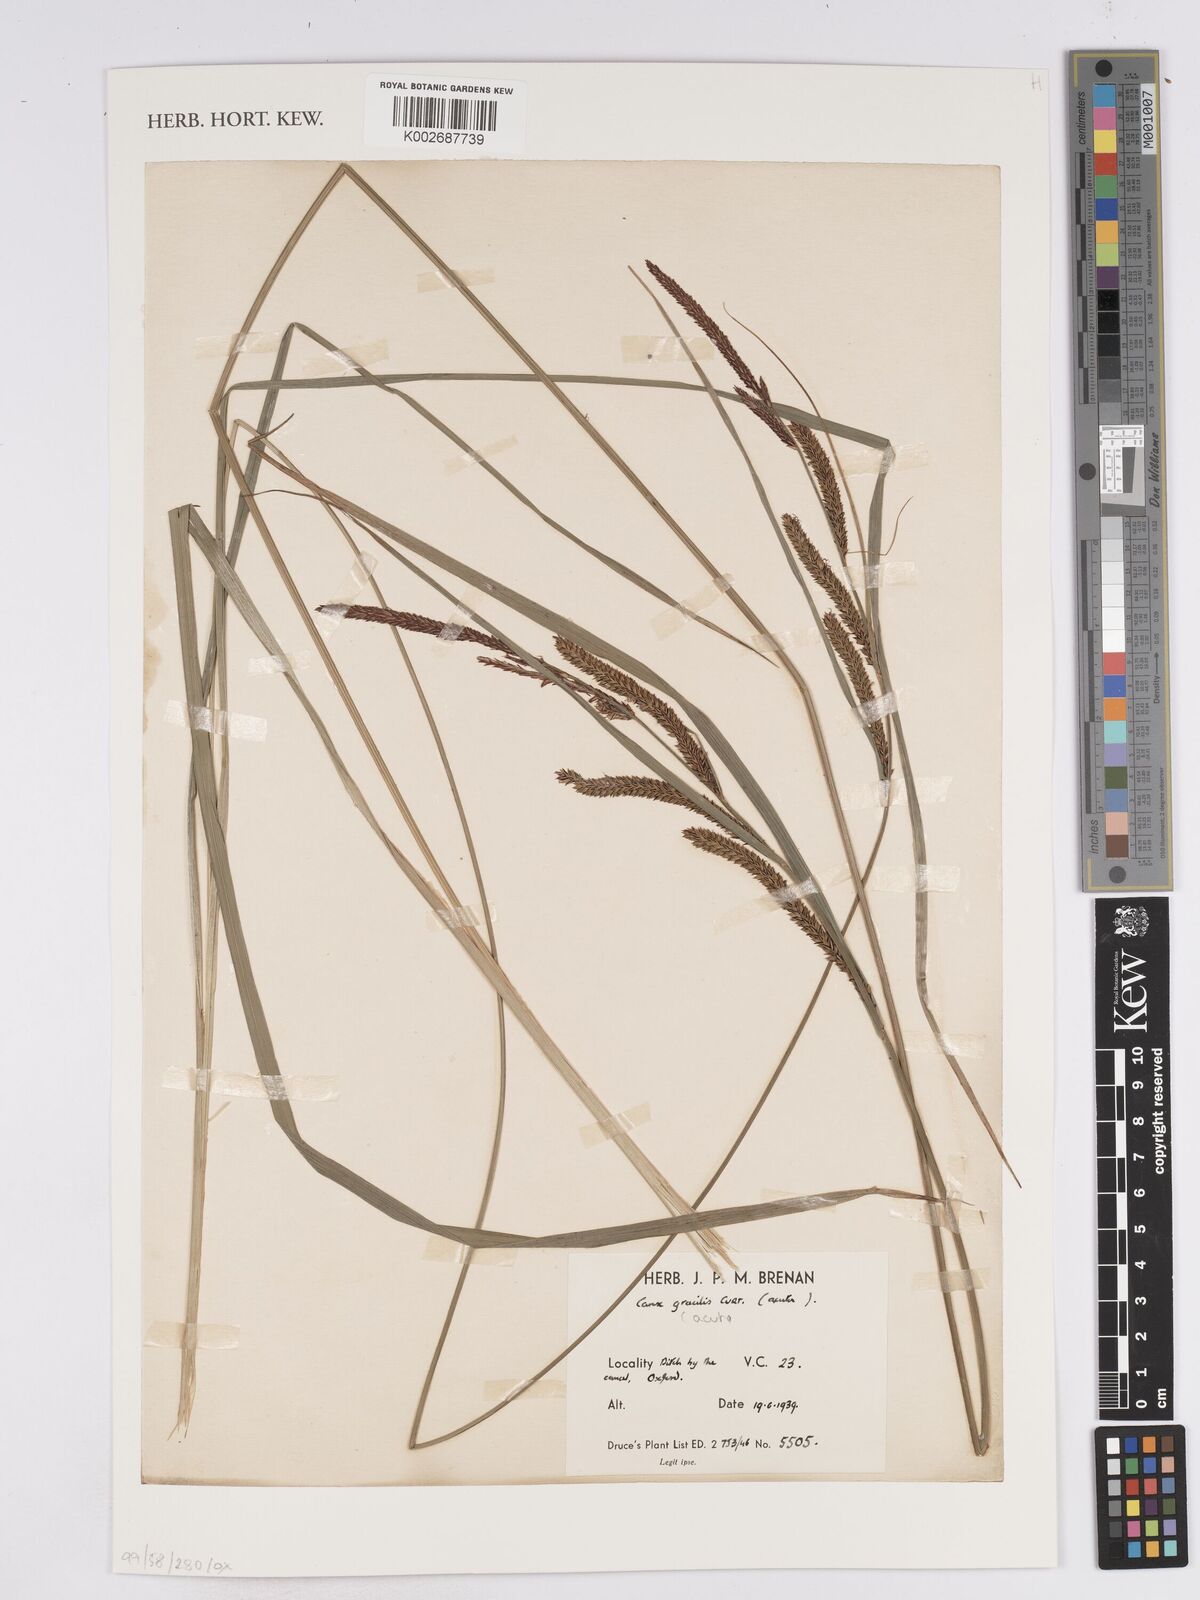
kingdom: Plantae
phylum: Tracheophyta
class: Liliopsida
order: Poales
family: Cyperaceae
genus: Carex
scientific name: Carex
